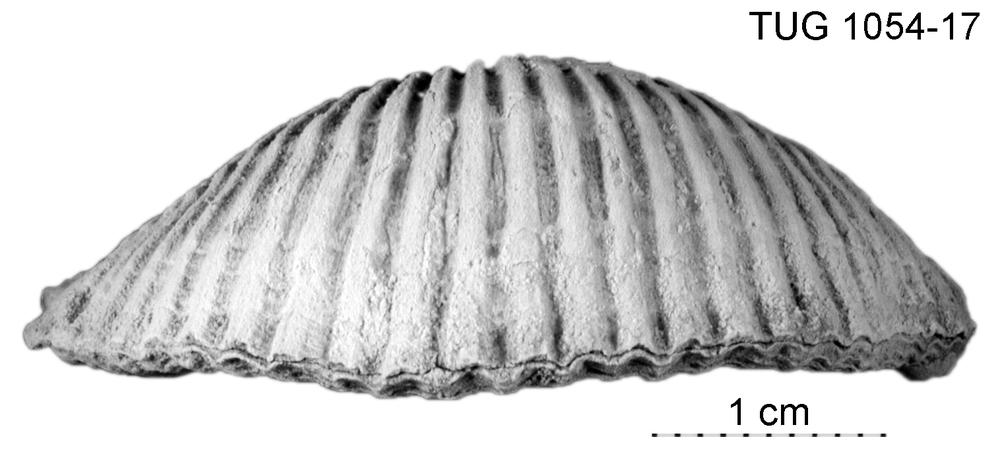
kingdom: Animalia
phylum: Brachiopoda
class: Rhynchonellata
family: Orthidae
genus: Cyrtonotella
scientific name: Cyrtonotella Orthis kuckersiana
